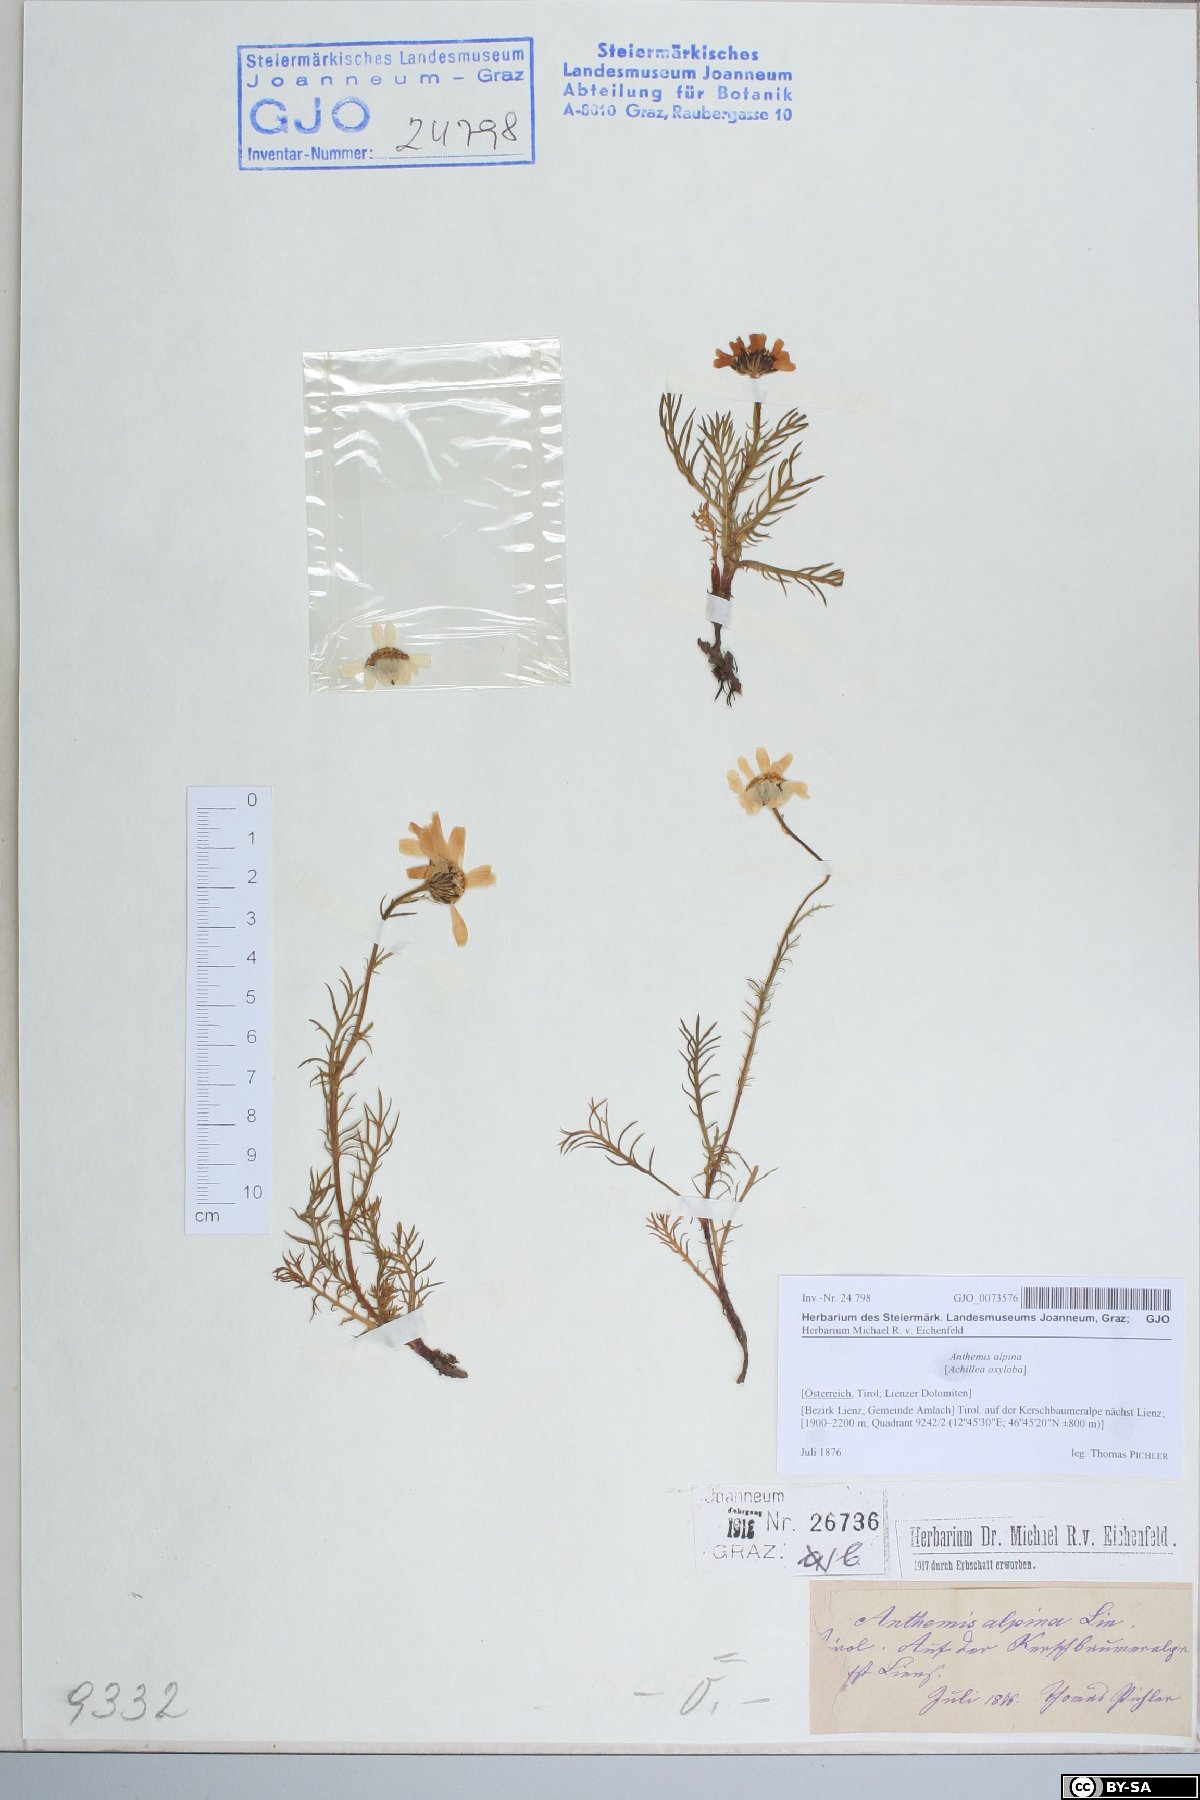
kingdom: Plantae
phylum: Tracheophyta
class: Magnoliopsida
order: Asterales
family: Asteraceae
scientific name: Asteraceae
